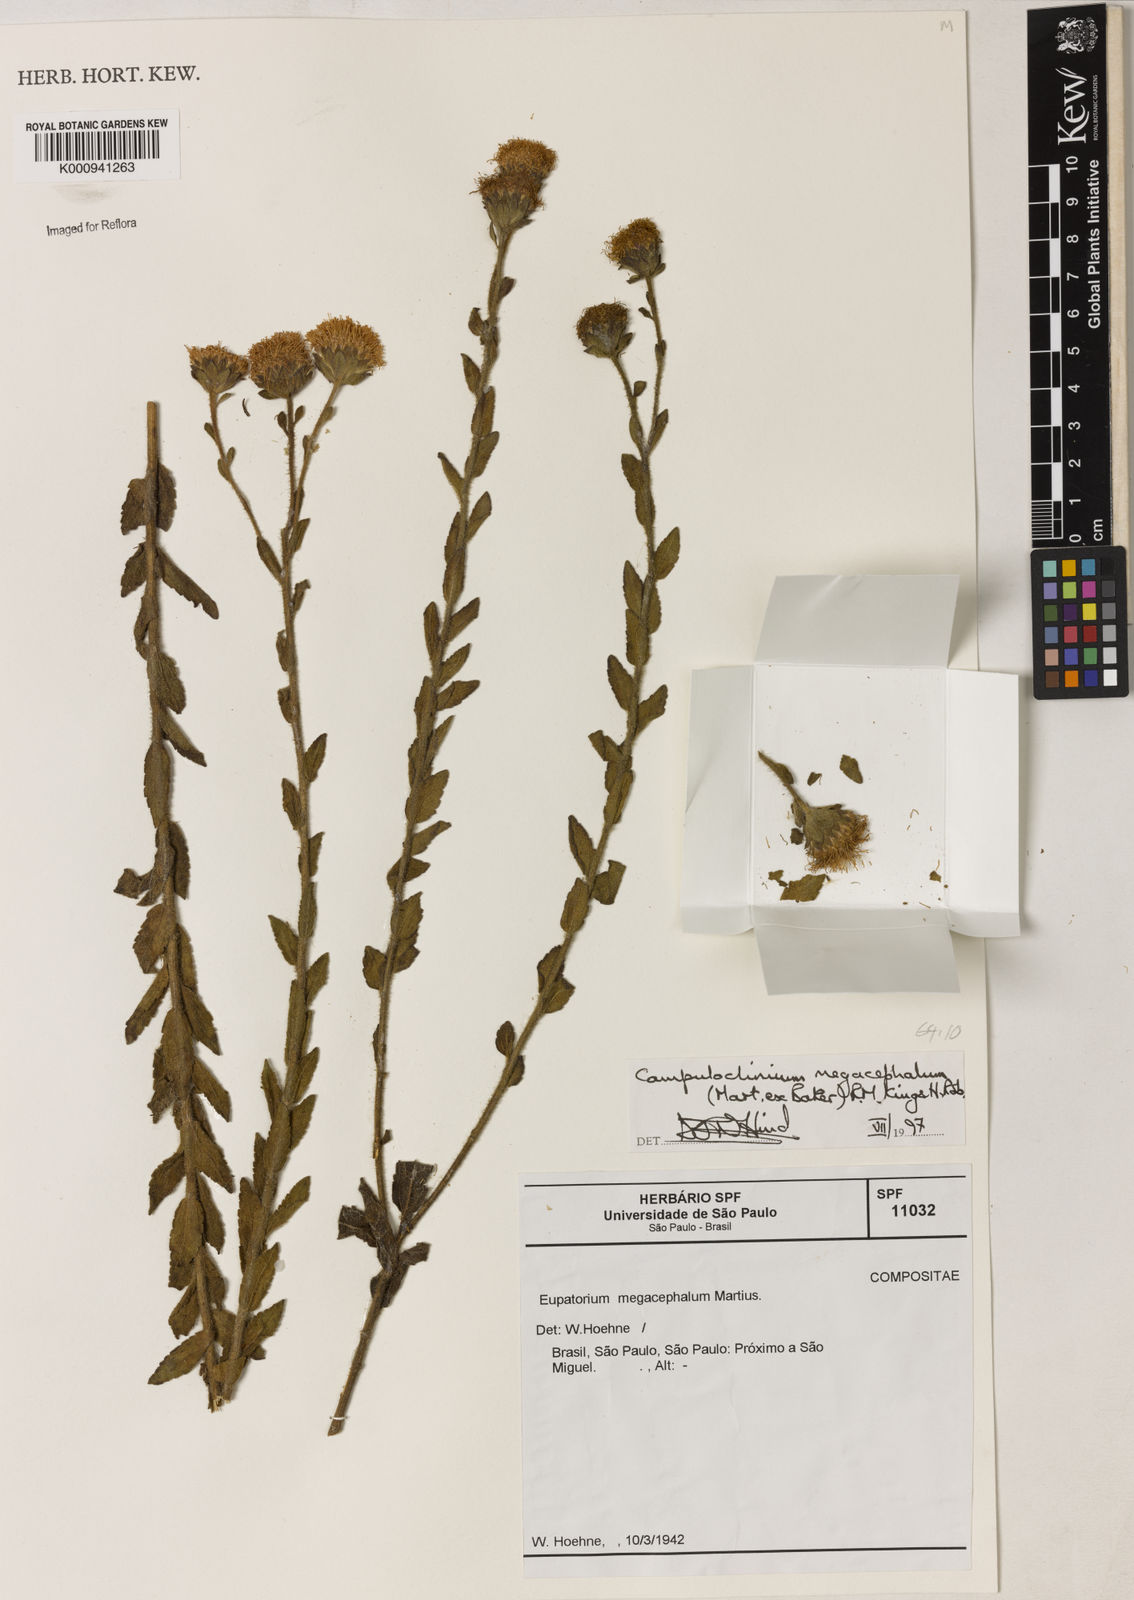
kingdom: Plantae
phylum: Tracheophyta
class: Magnoliopsida
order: Asterales
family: Asteraceae
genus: Campuloclinium
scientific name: Campuloclinium megacephalum
